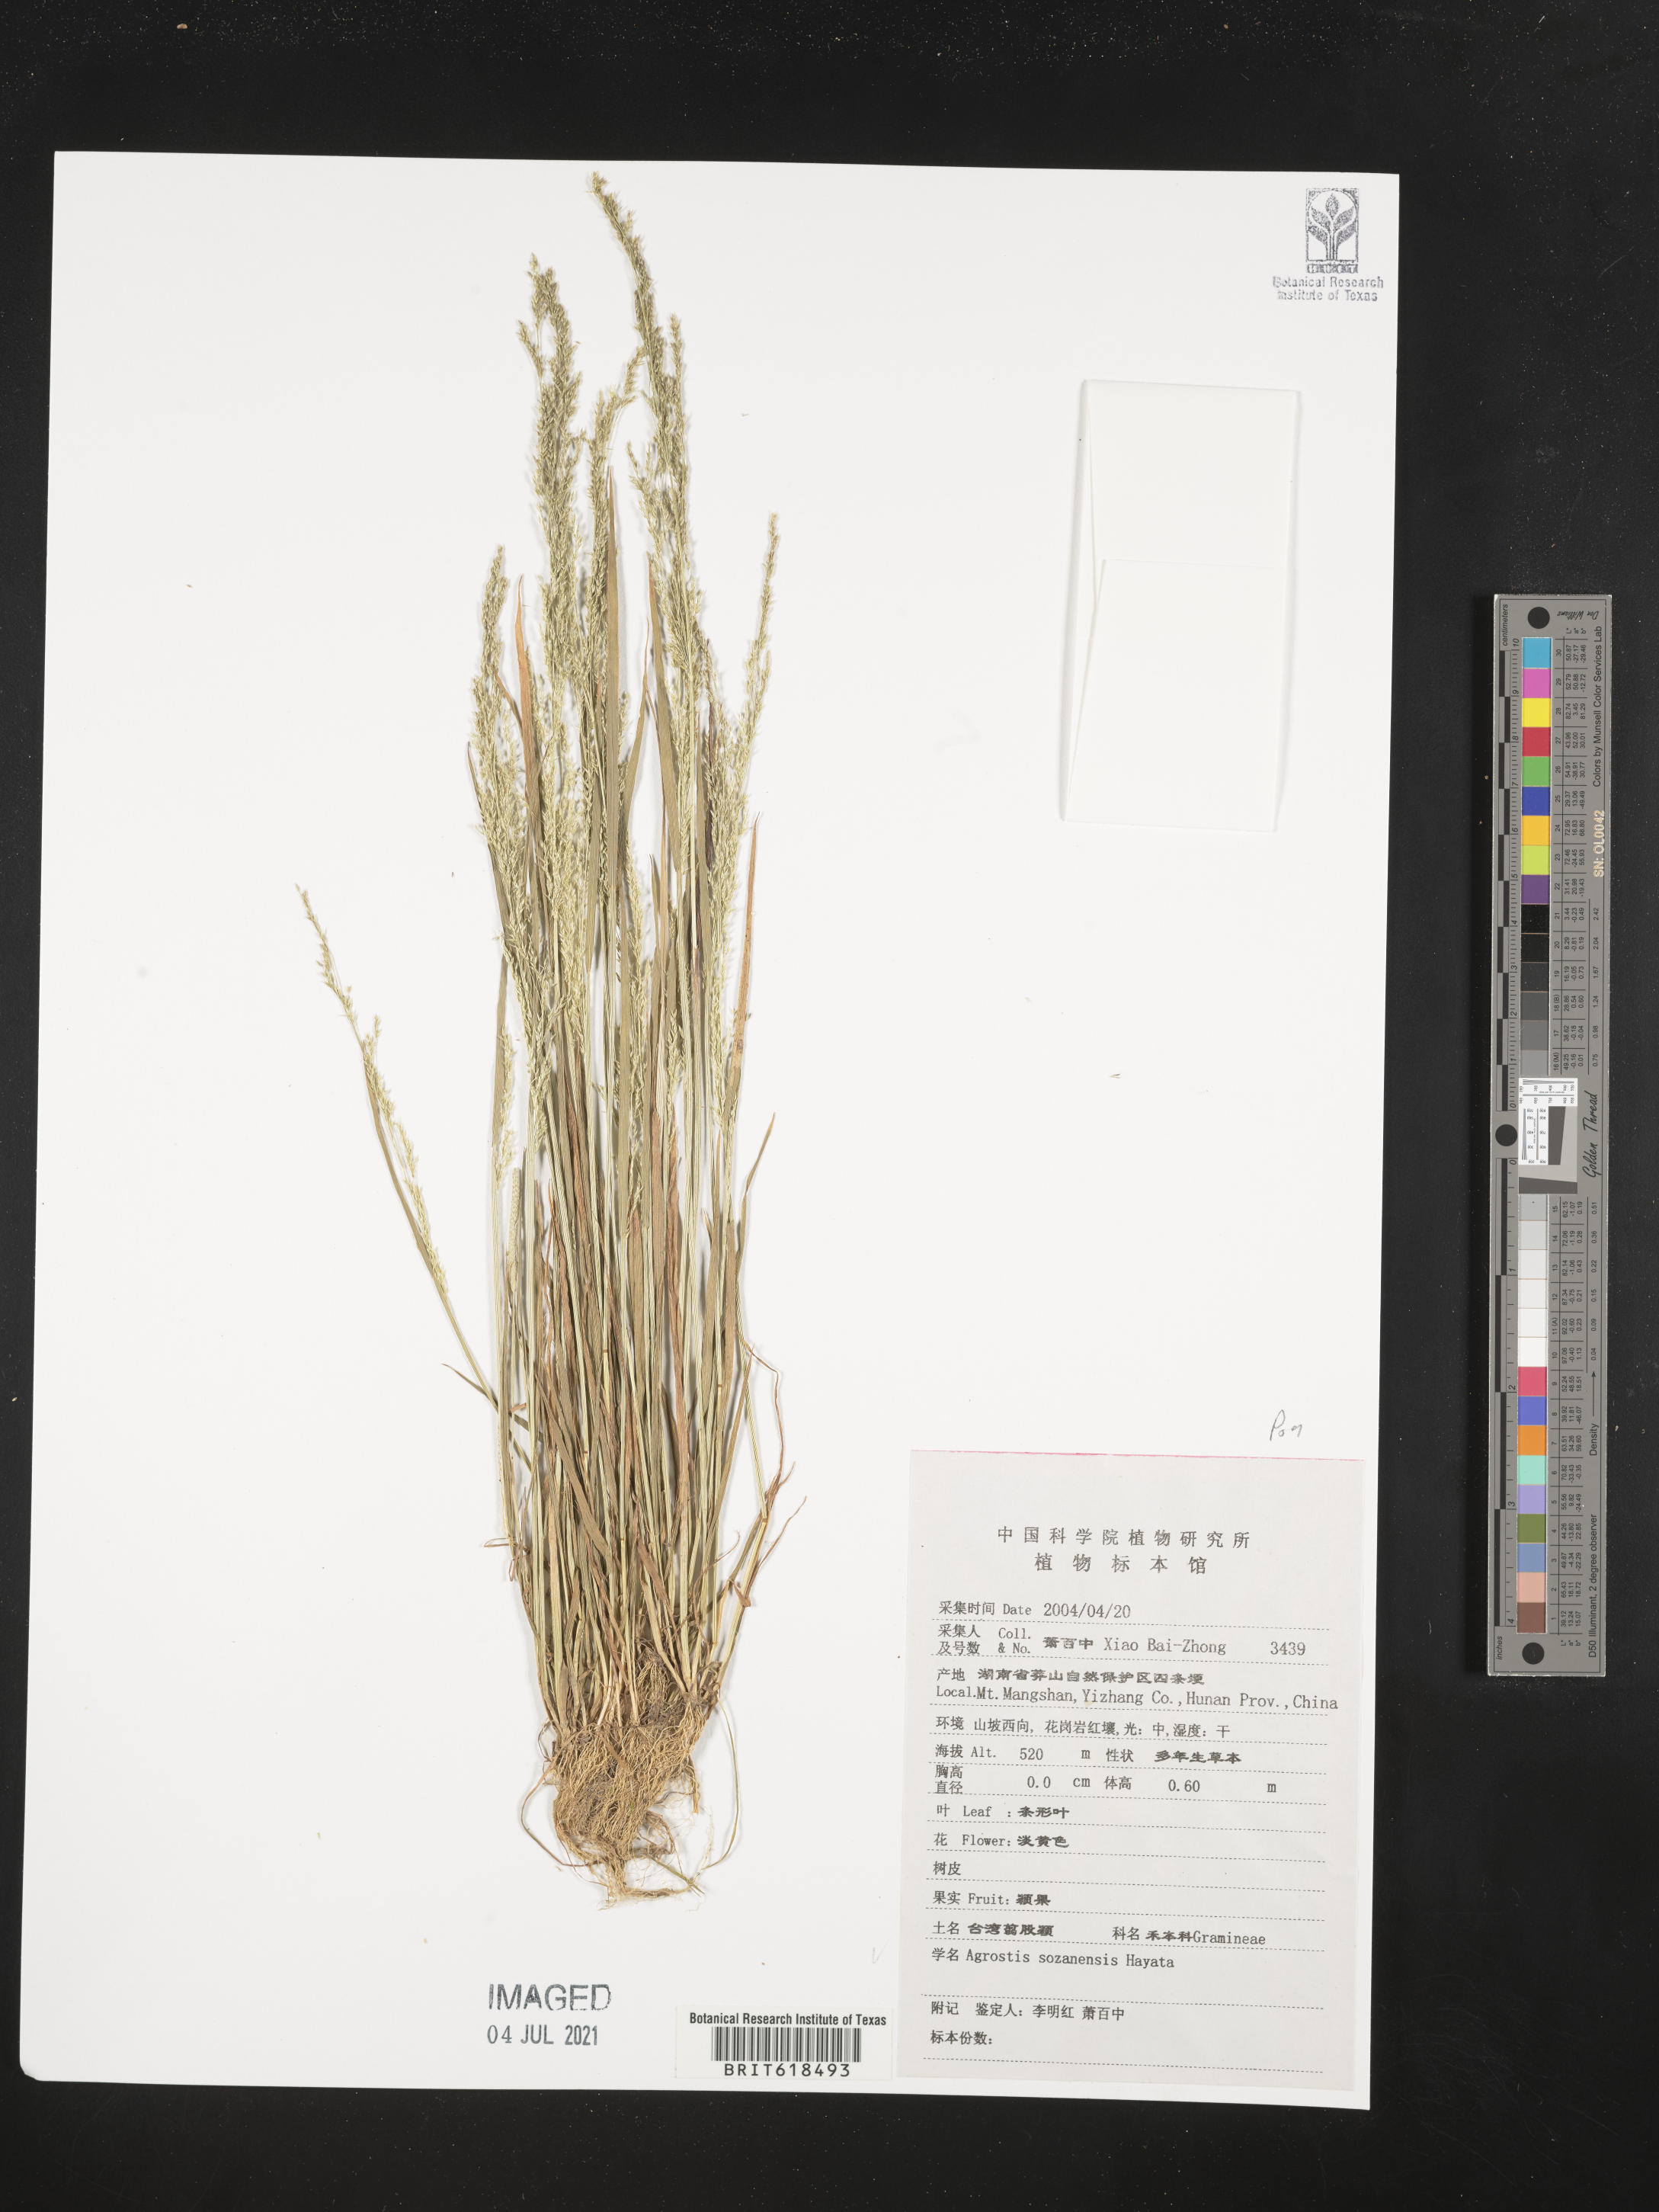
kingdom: Plantae
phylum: Tracheophyta
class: Liliopsida
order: Poales
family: Poaceae
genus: Agrostis
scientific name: Agrostis infirma
